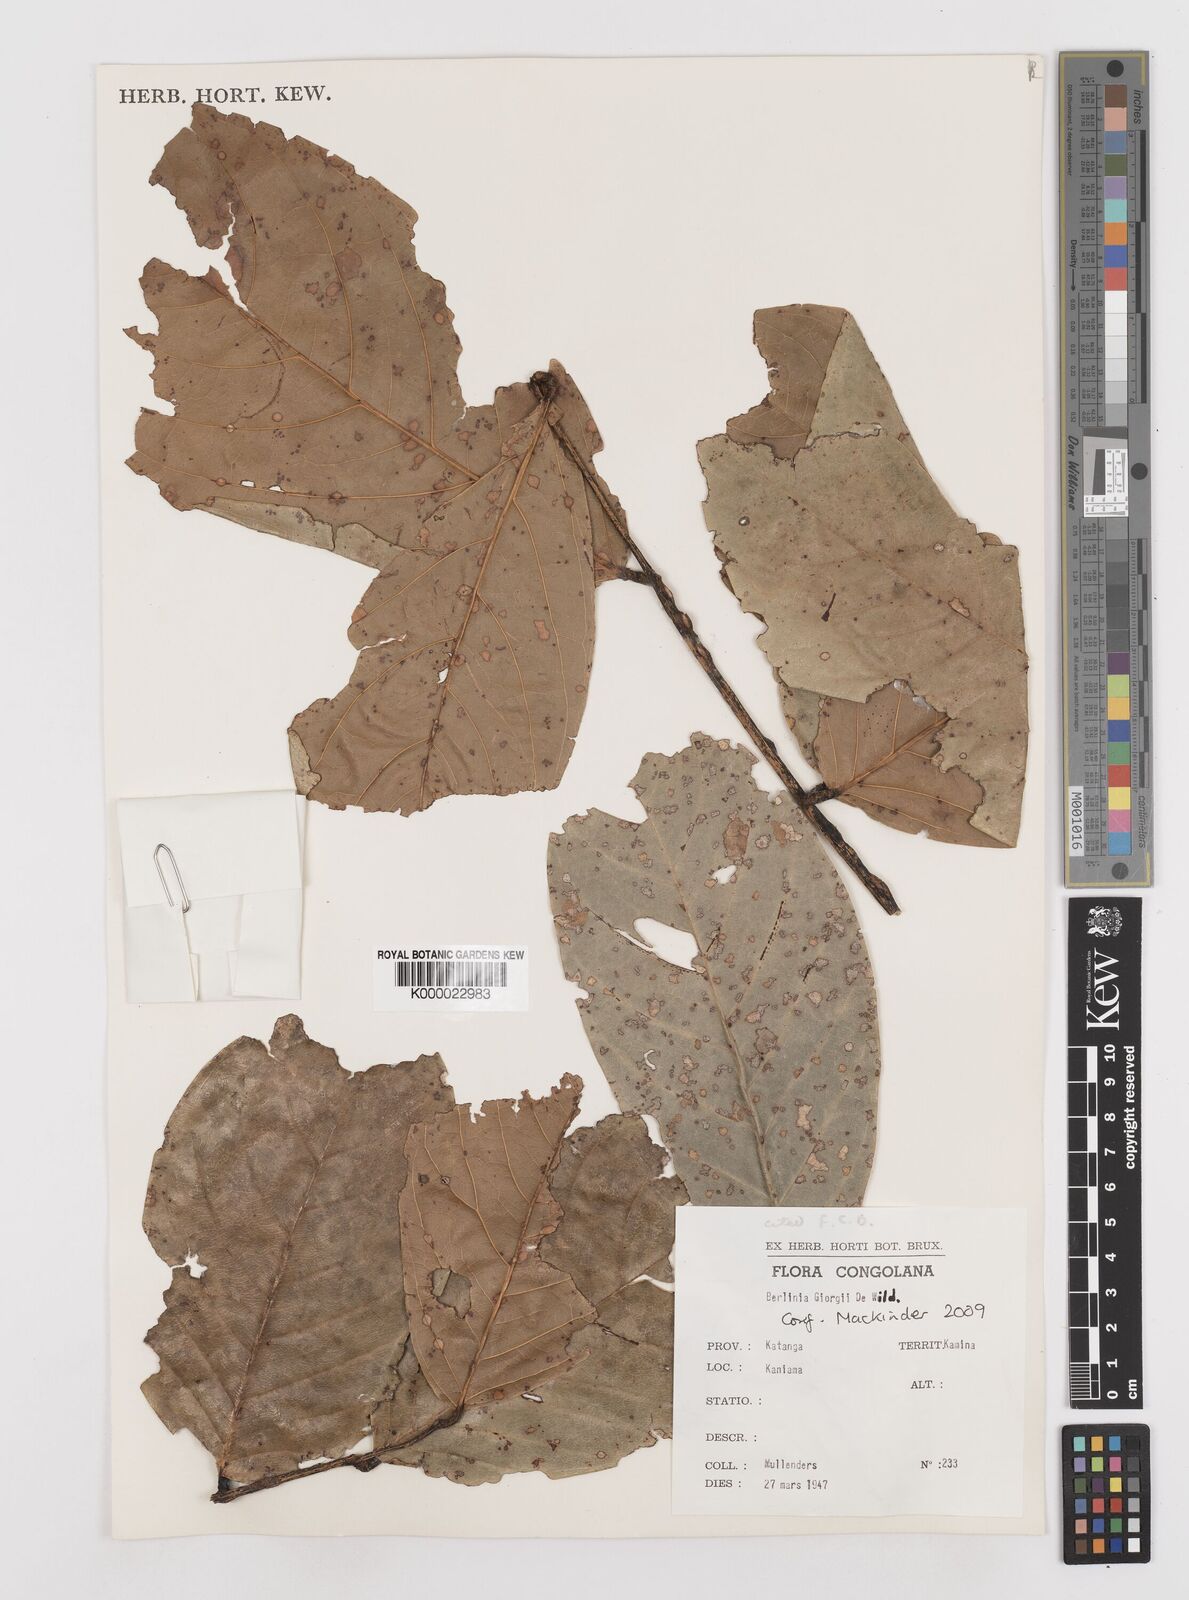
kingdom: Plantae
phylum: Tracheophyta
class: Magnoliopsida
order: Fabales
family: Fabaceae
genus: Berlinia
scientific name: Berlinia giorgii
